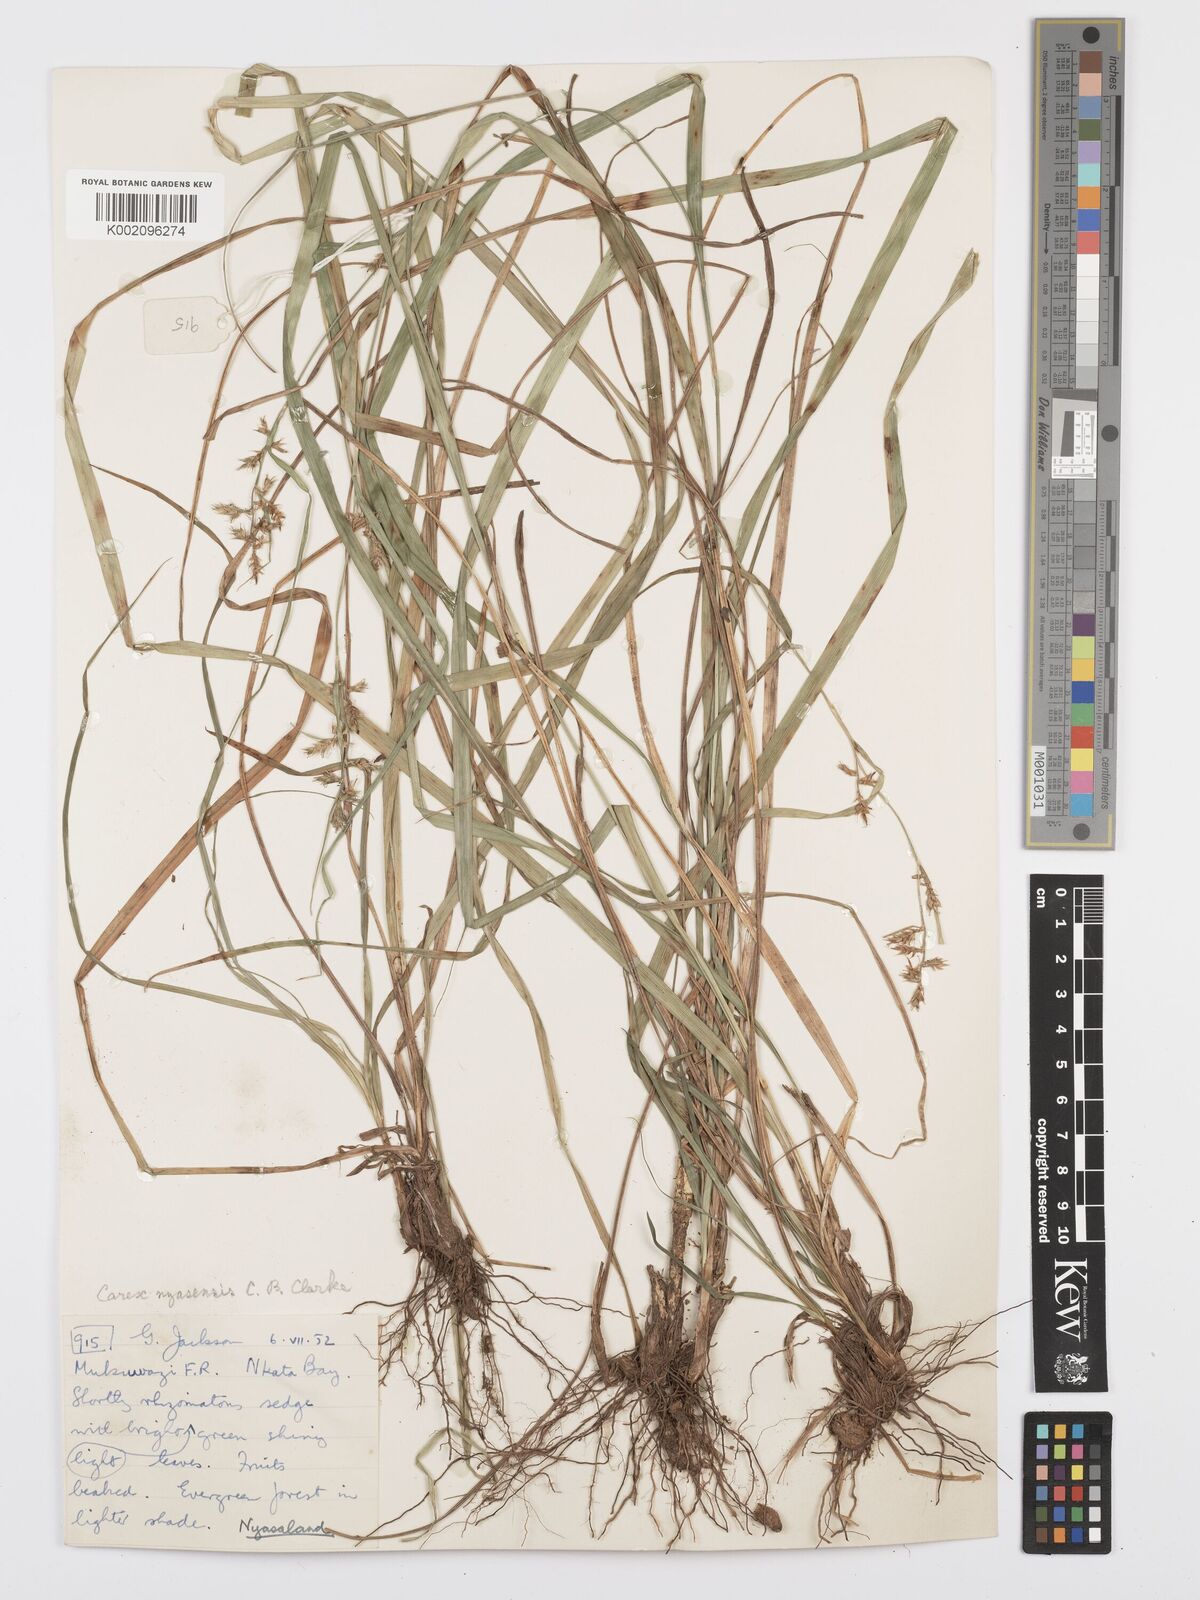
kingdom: Plantae
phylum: Tracheophyta
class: Liliopsida
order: Poales
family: Cyperaceae
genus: Carex
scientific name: Carex spicatopaniculata
